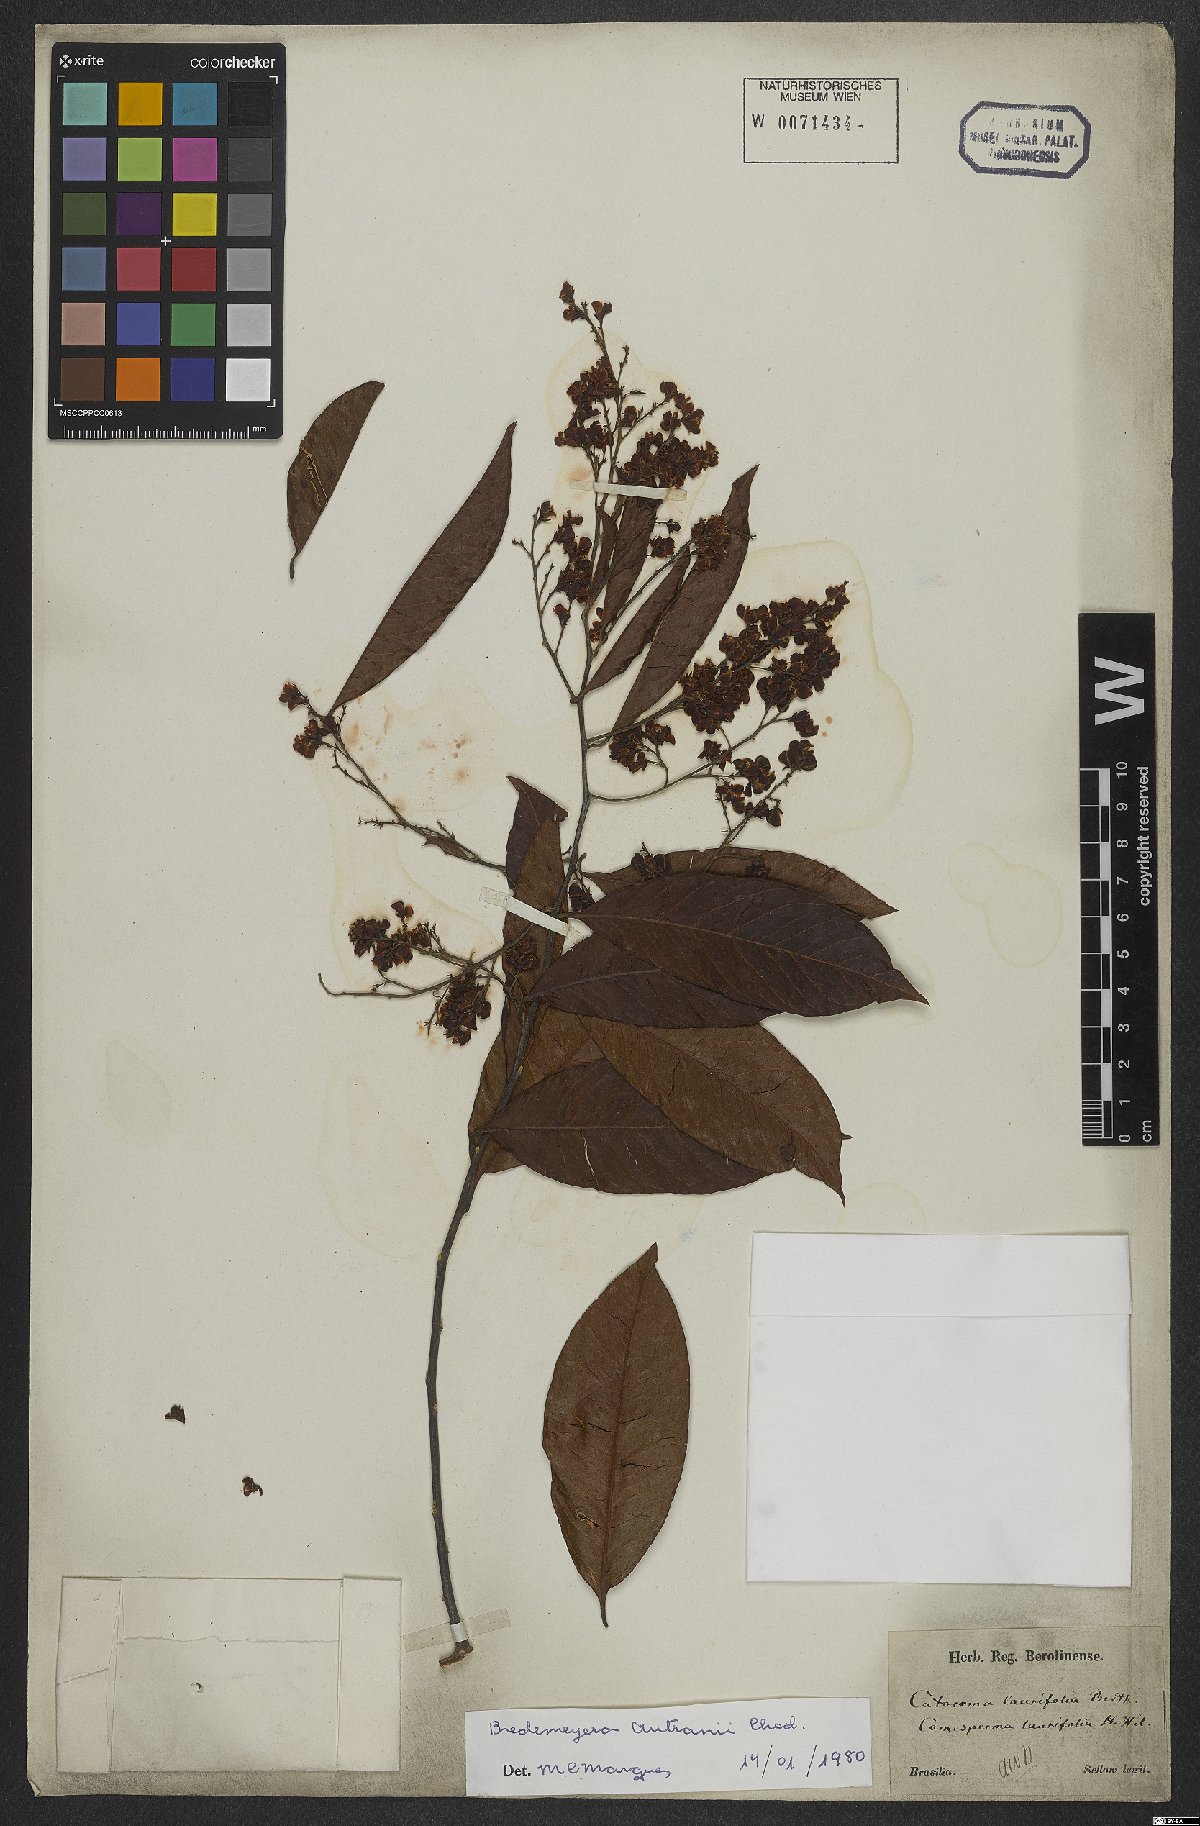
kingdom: Plantae
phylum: Tracheophyta
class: Magnoliopsida
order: Fabales
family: Polygalaceae
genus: Bredemeyera
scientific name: Bredemeyera disperma
